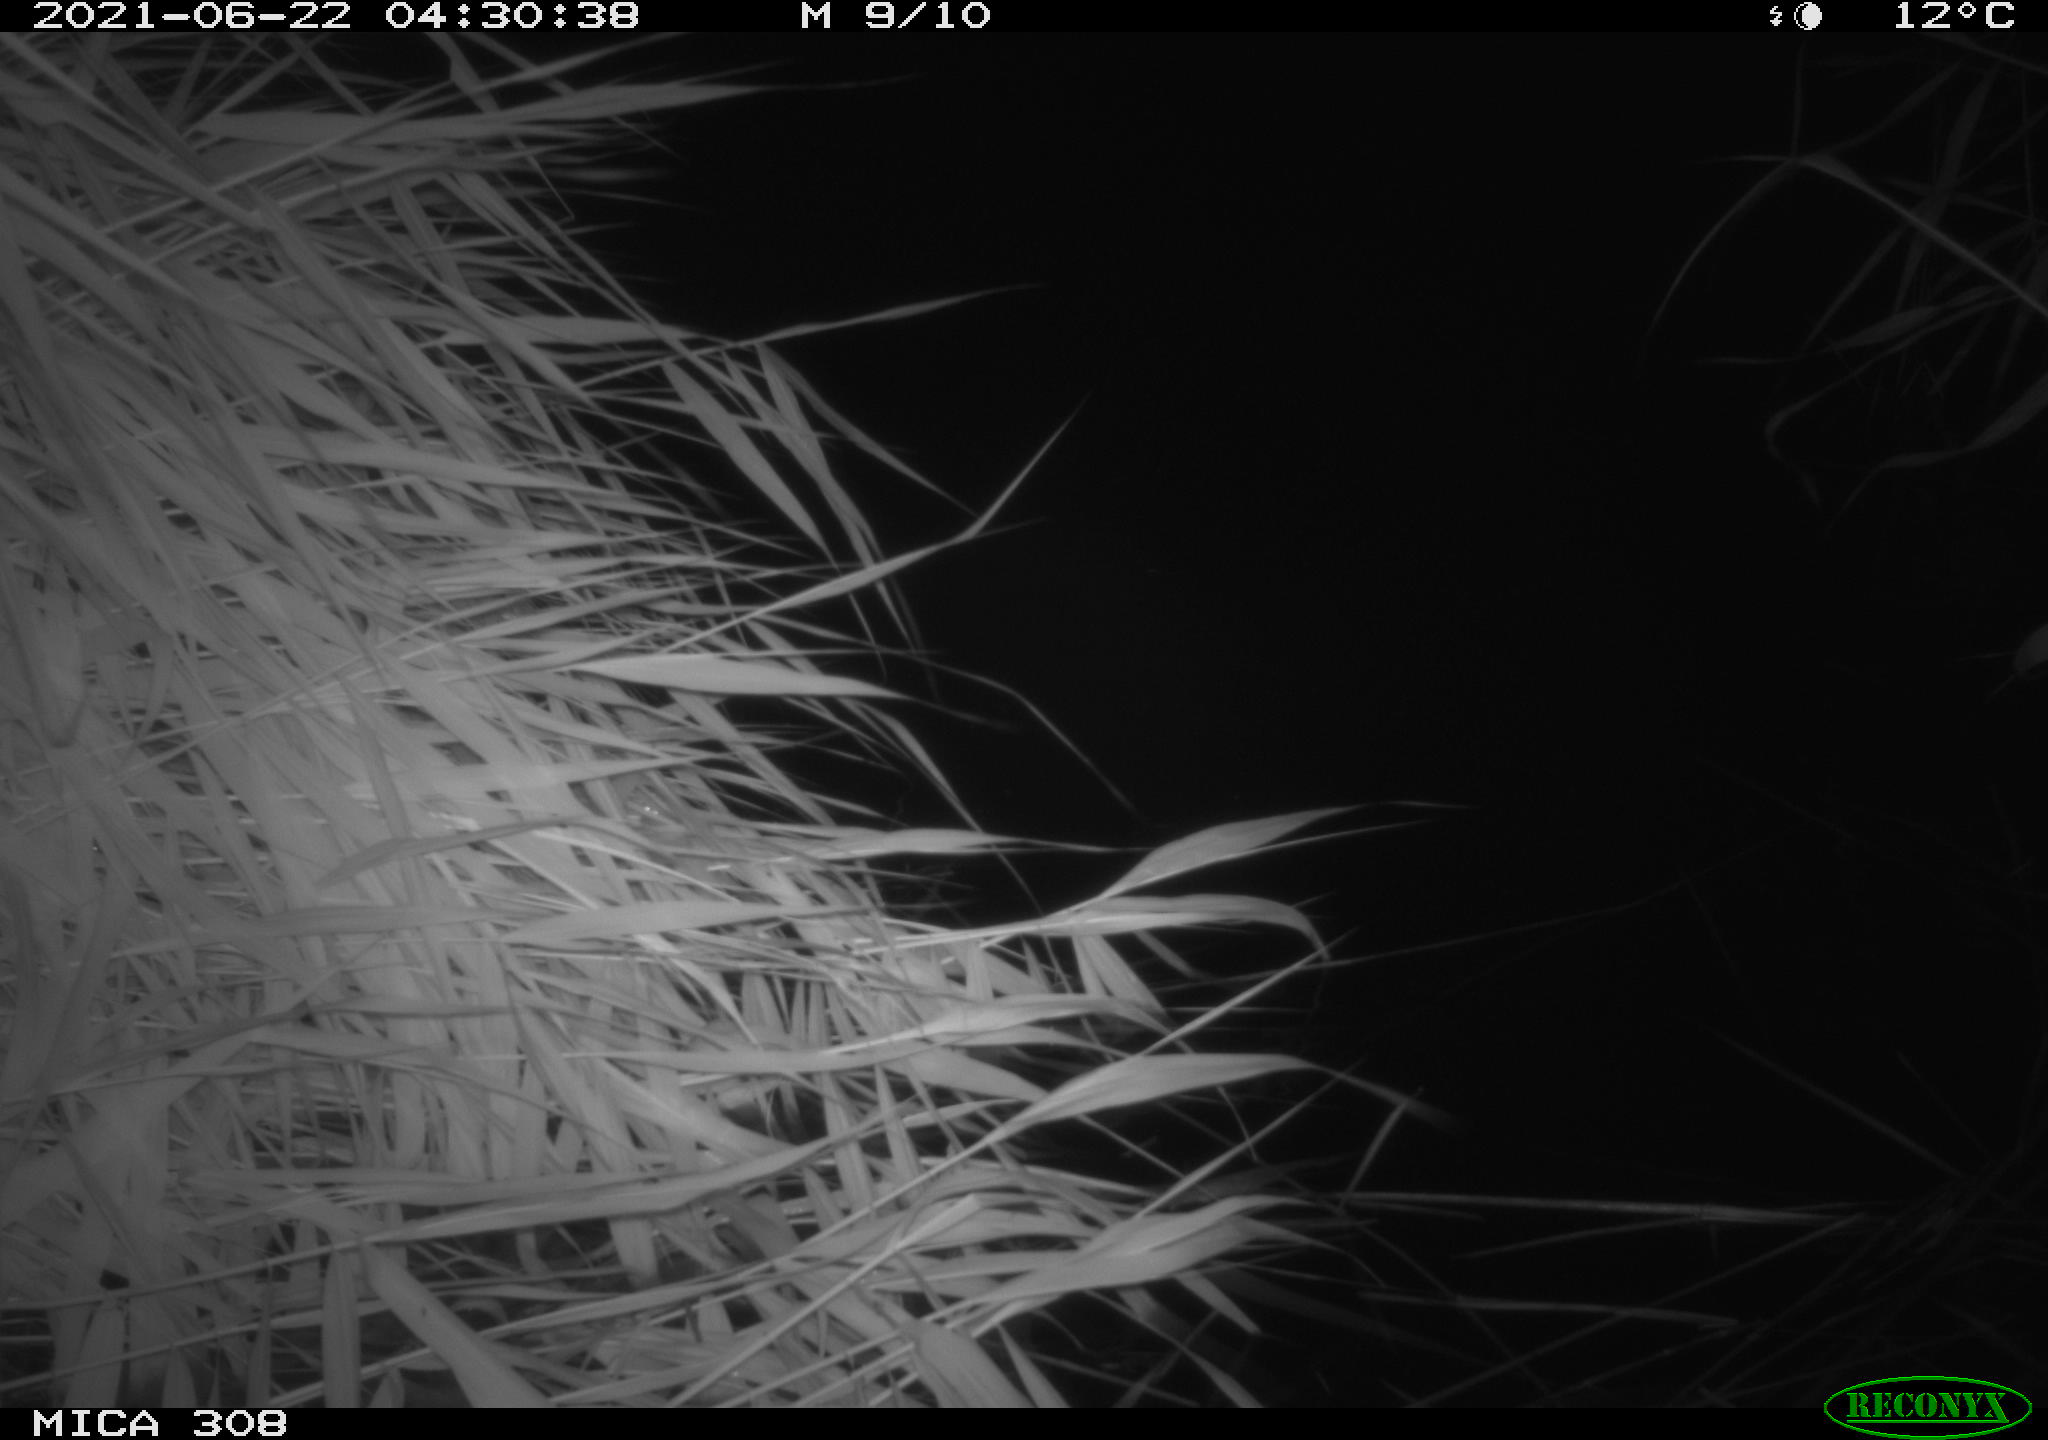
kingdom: Animalia
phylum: Chordata
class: Aves
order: Anseriformes
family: Anatidae
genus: Anas
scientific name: Anas platyrhynchos
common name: Mallard
